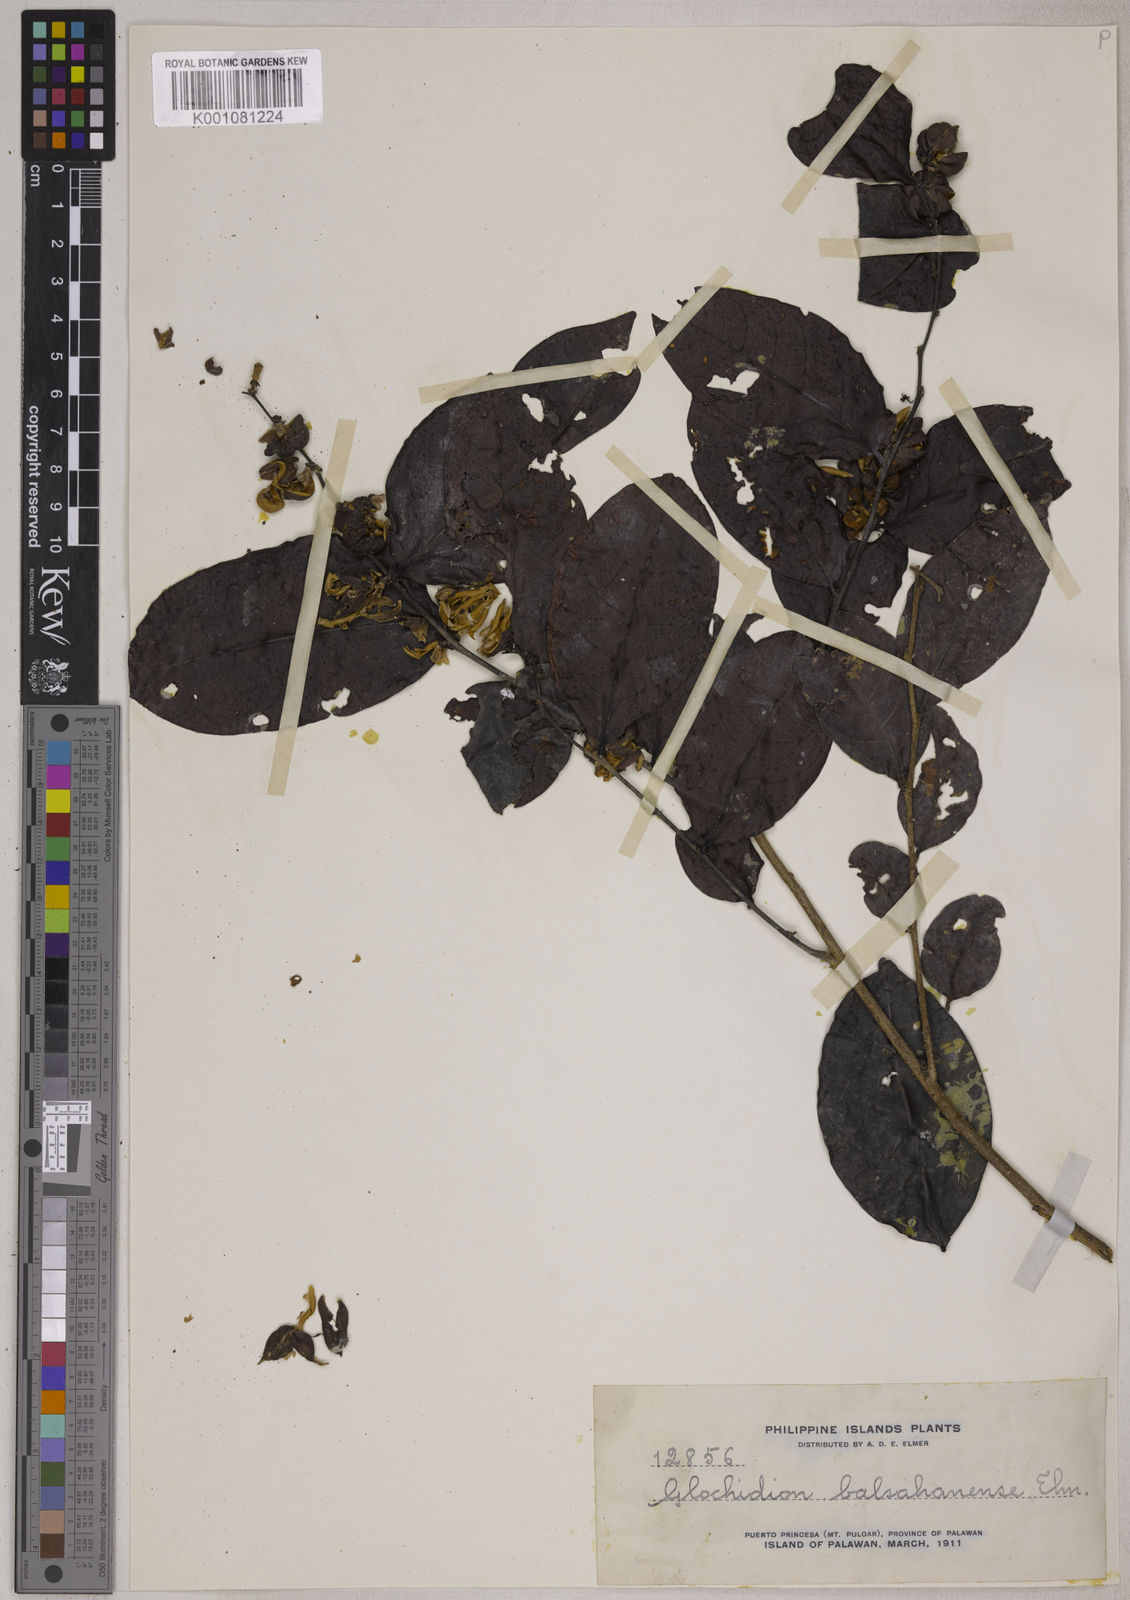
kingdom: Plantae
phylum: Tracheophyta
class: Magnoliopsida
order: Malpighiales
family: Phyllanthaceae
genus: Glochidion
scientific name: Glochidion coronulatum
